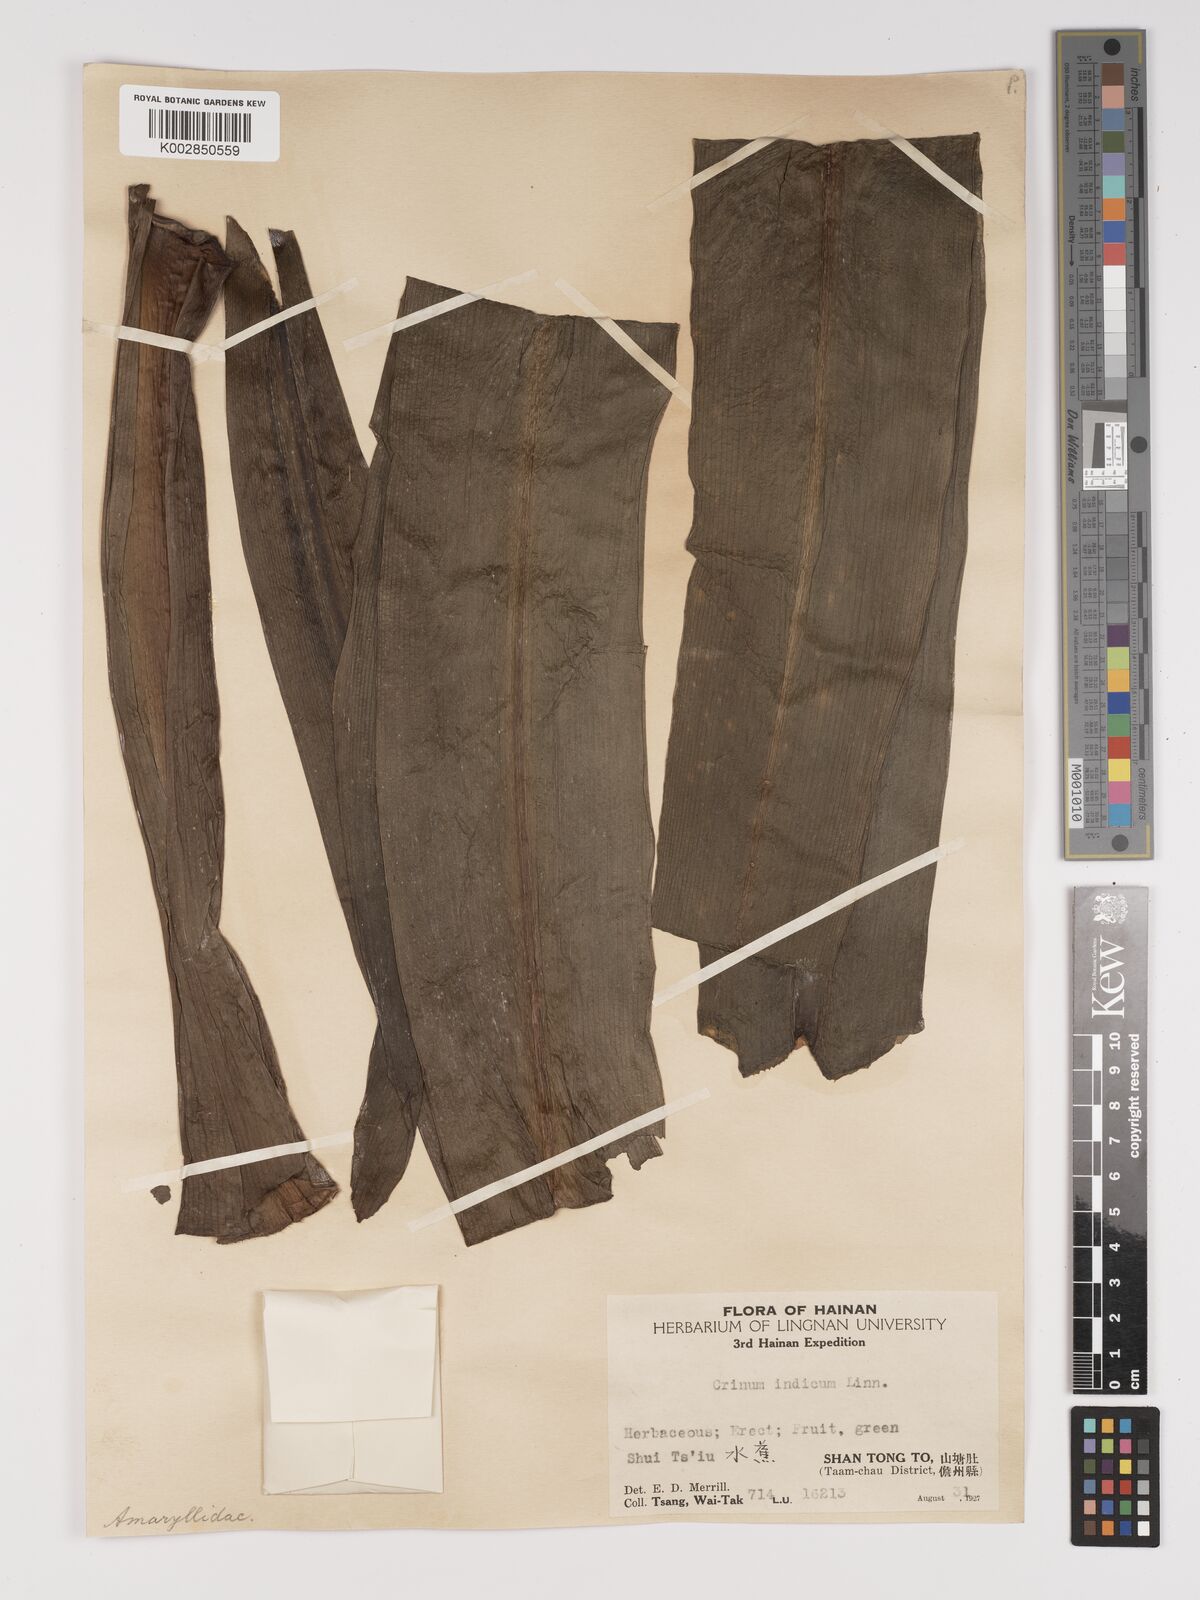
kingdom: Plantae
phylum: Tracheophyta
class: Liliopsida
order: Asparagales
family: Amaryllidaceae
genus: Crinum
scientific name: Crinum asiaticum
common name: Poisonbulb
